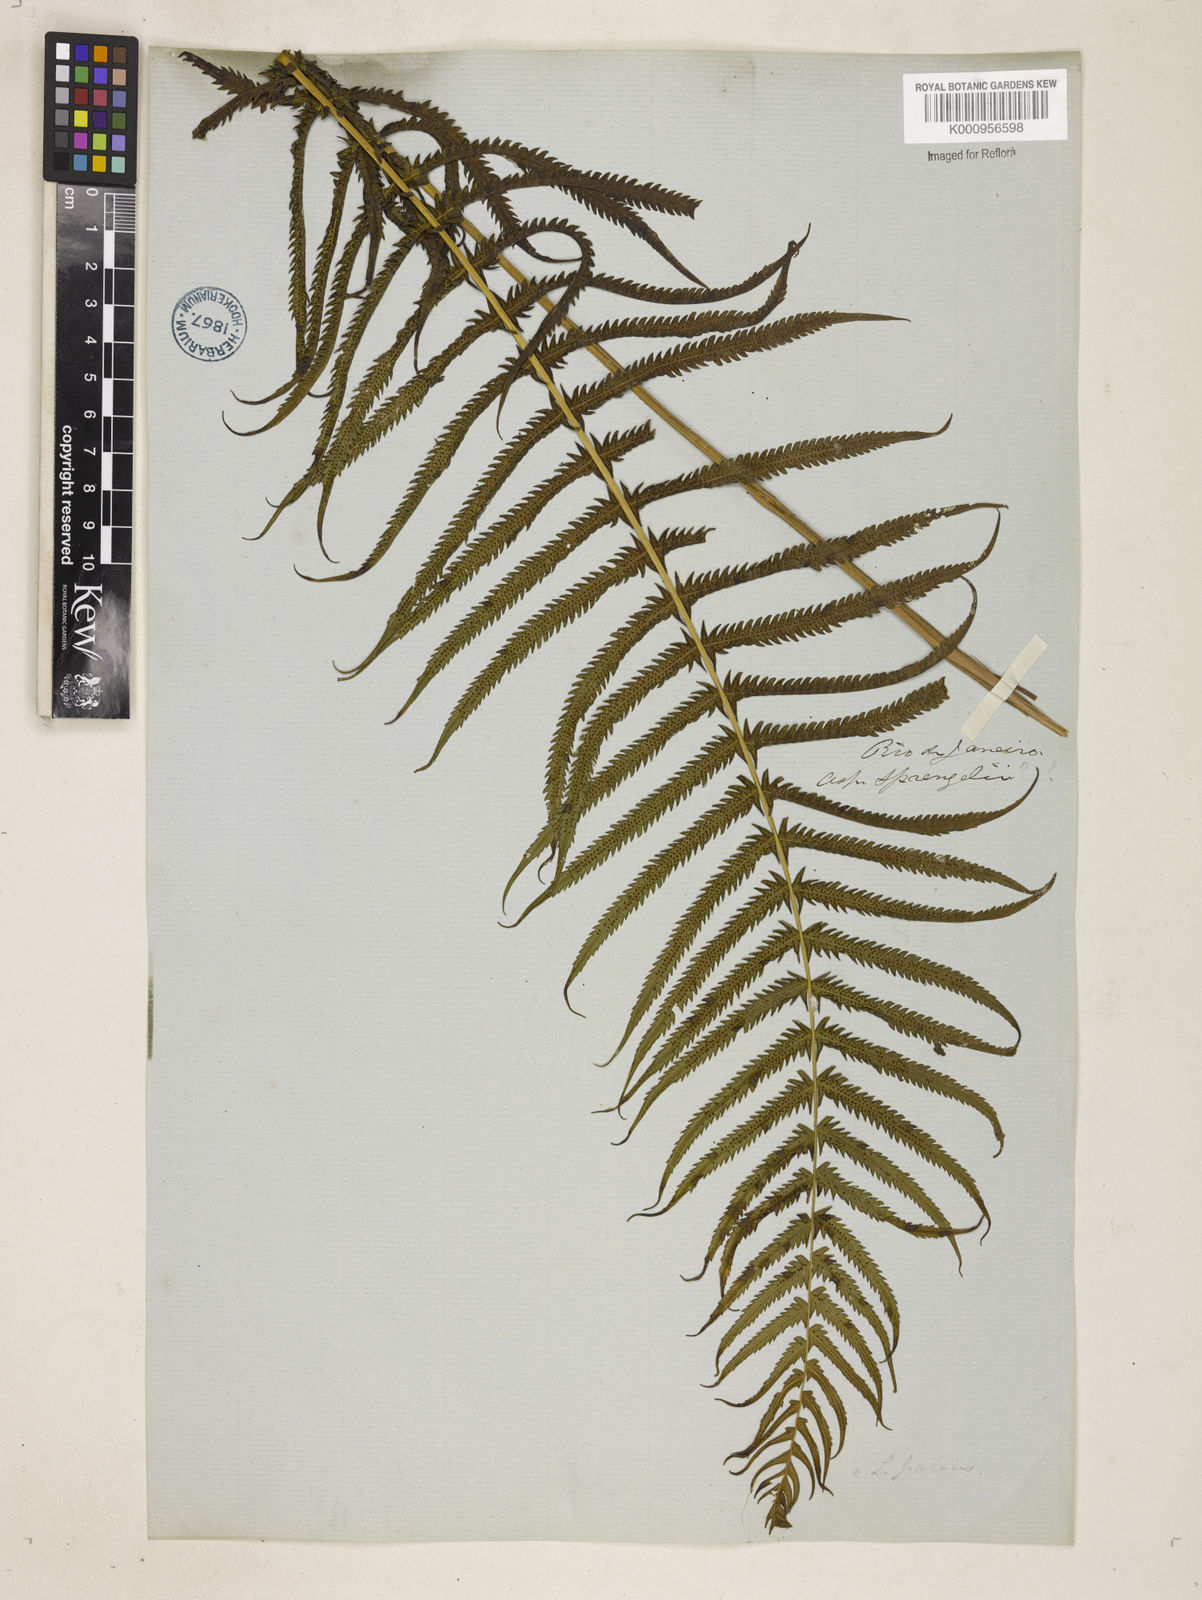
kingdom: Plantae
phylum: Tracheophyta
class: Polypodiopsida
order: Polypodiales
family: Thelypteridaceae
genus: Pelazoneuron
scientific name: Pelazoneuron patens
